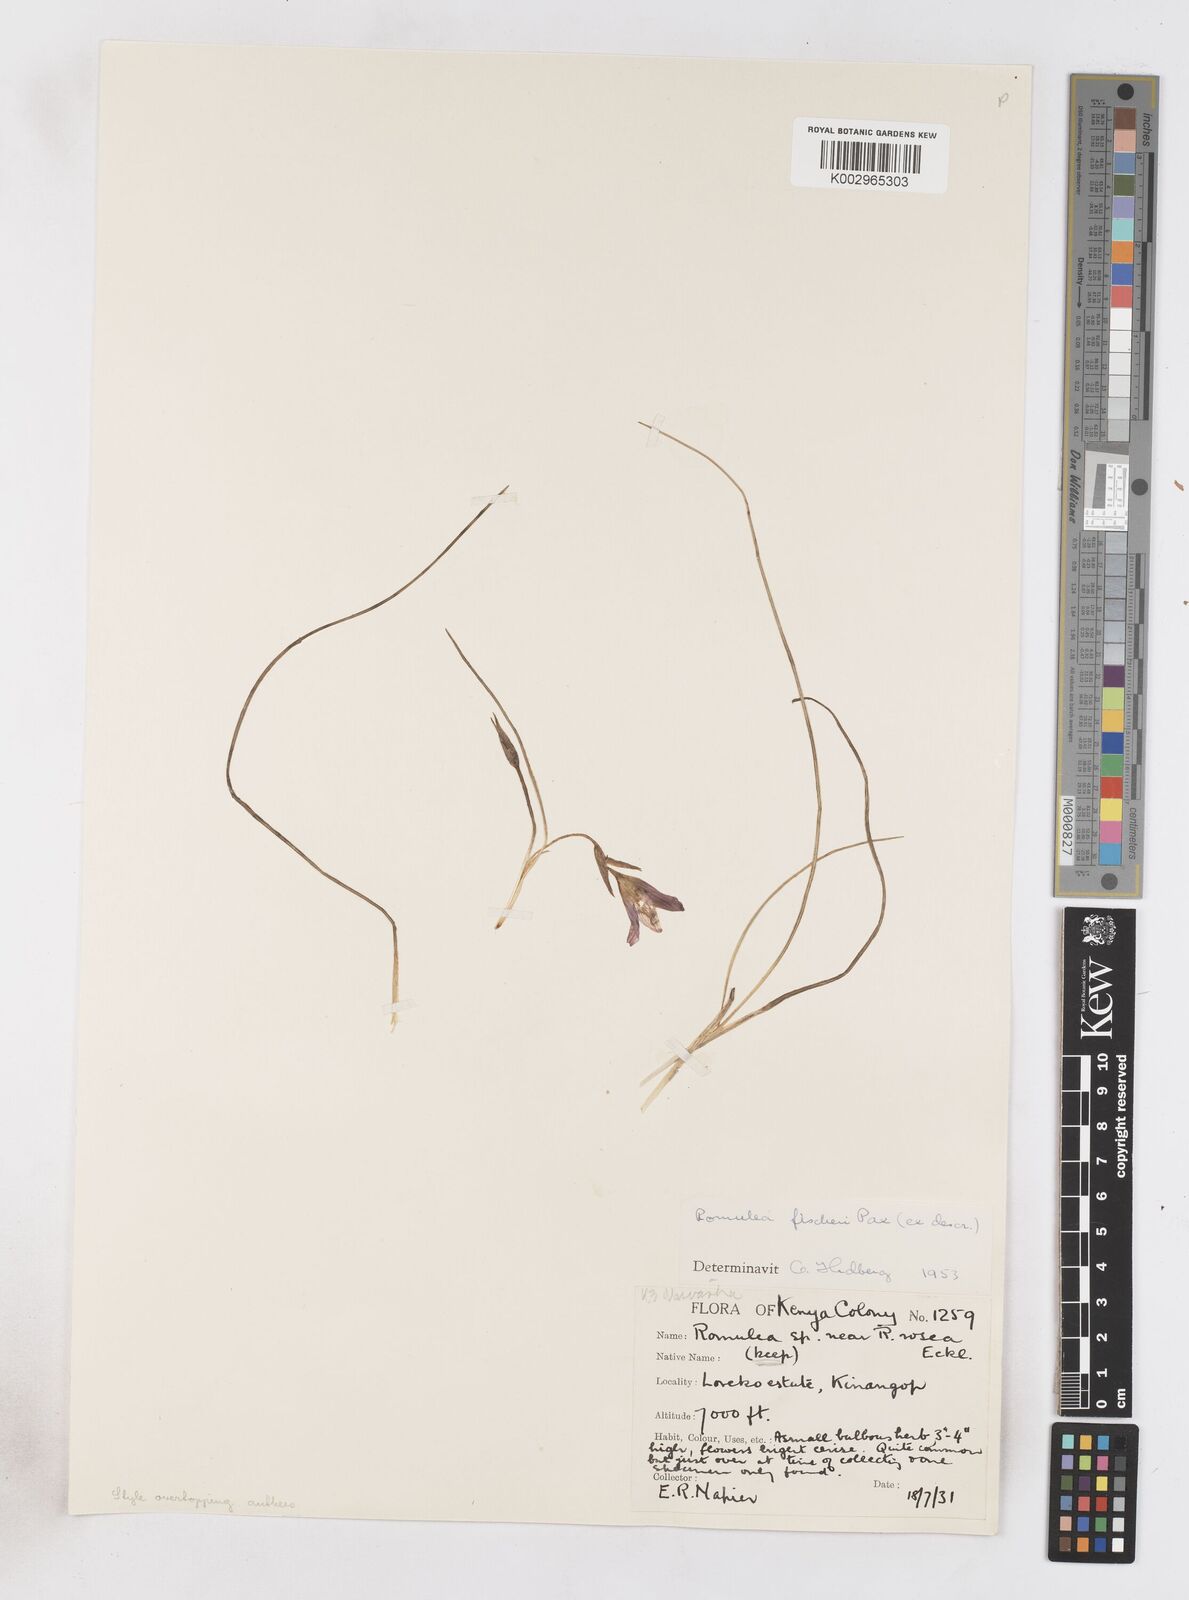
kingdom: Plantae
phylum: Tracheophyta
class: Liliopsida
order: Asparagales
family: Iridaceae
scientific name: Iridaceae
